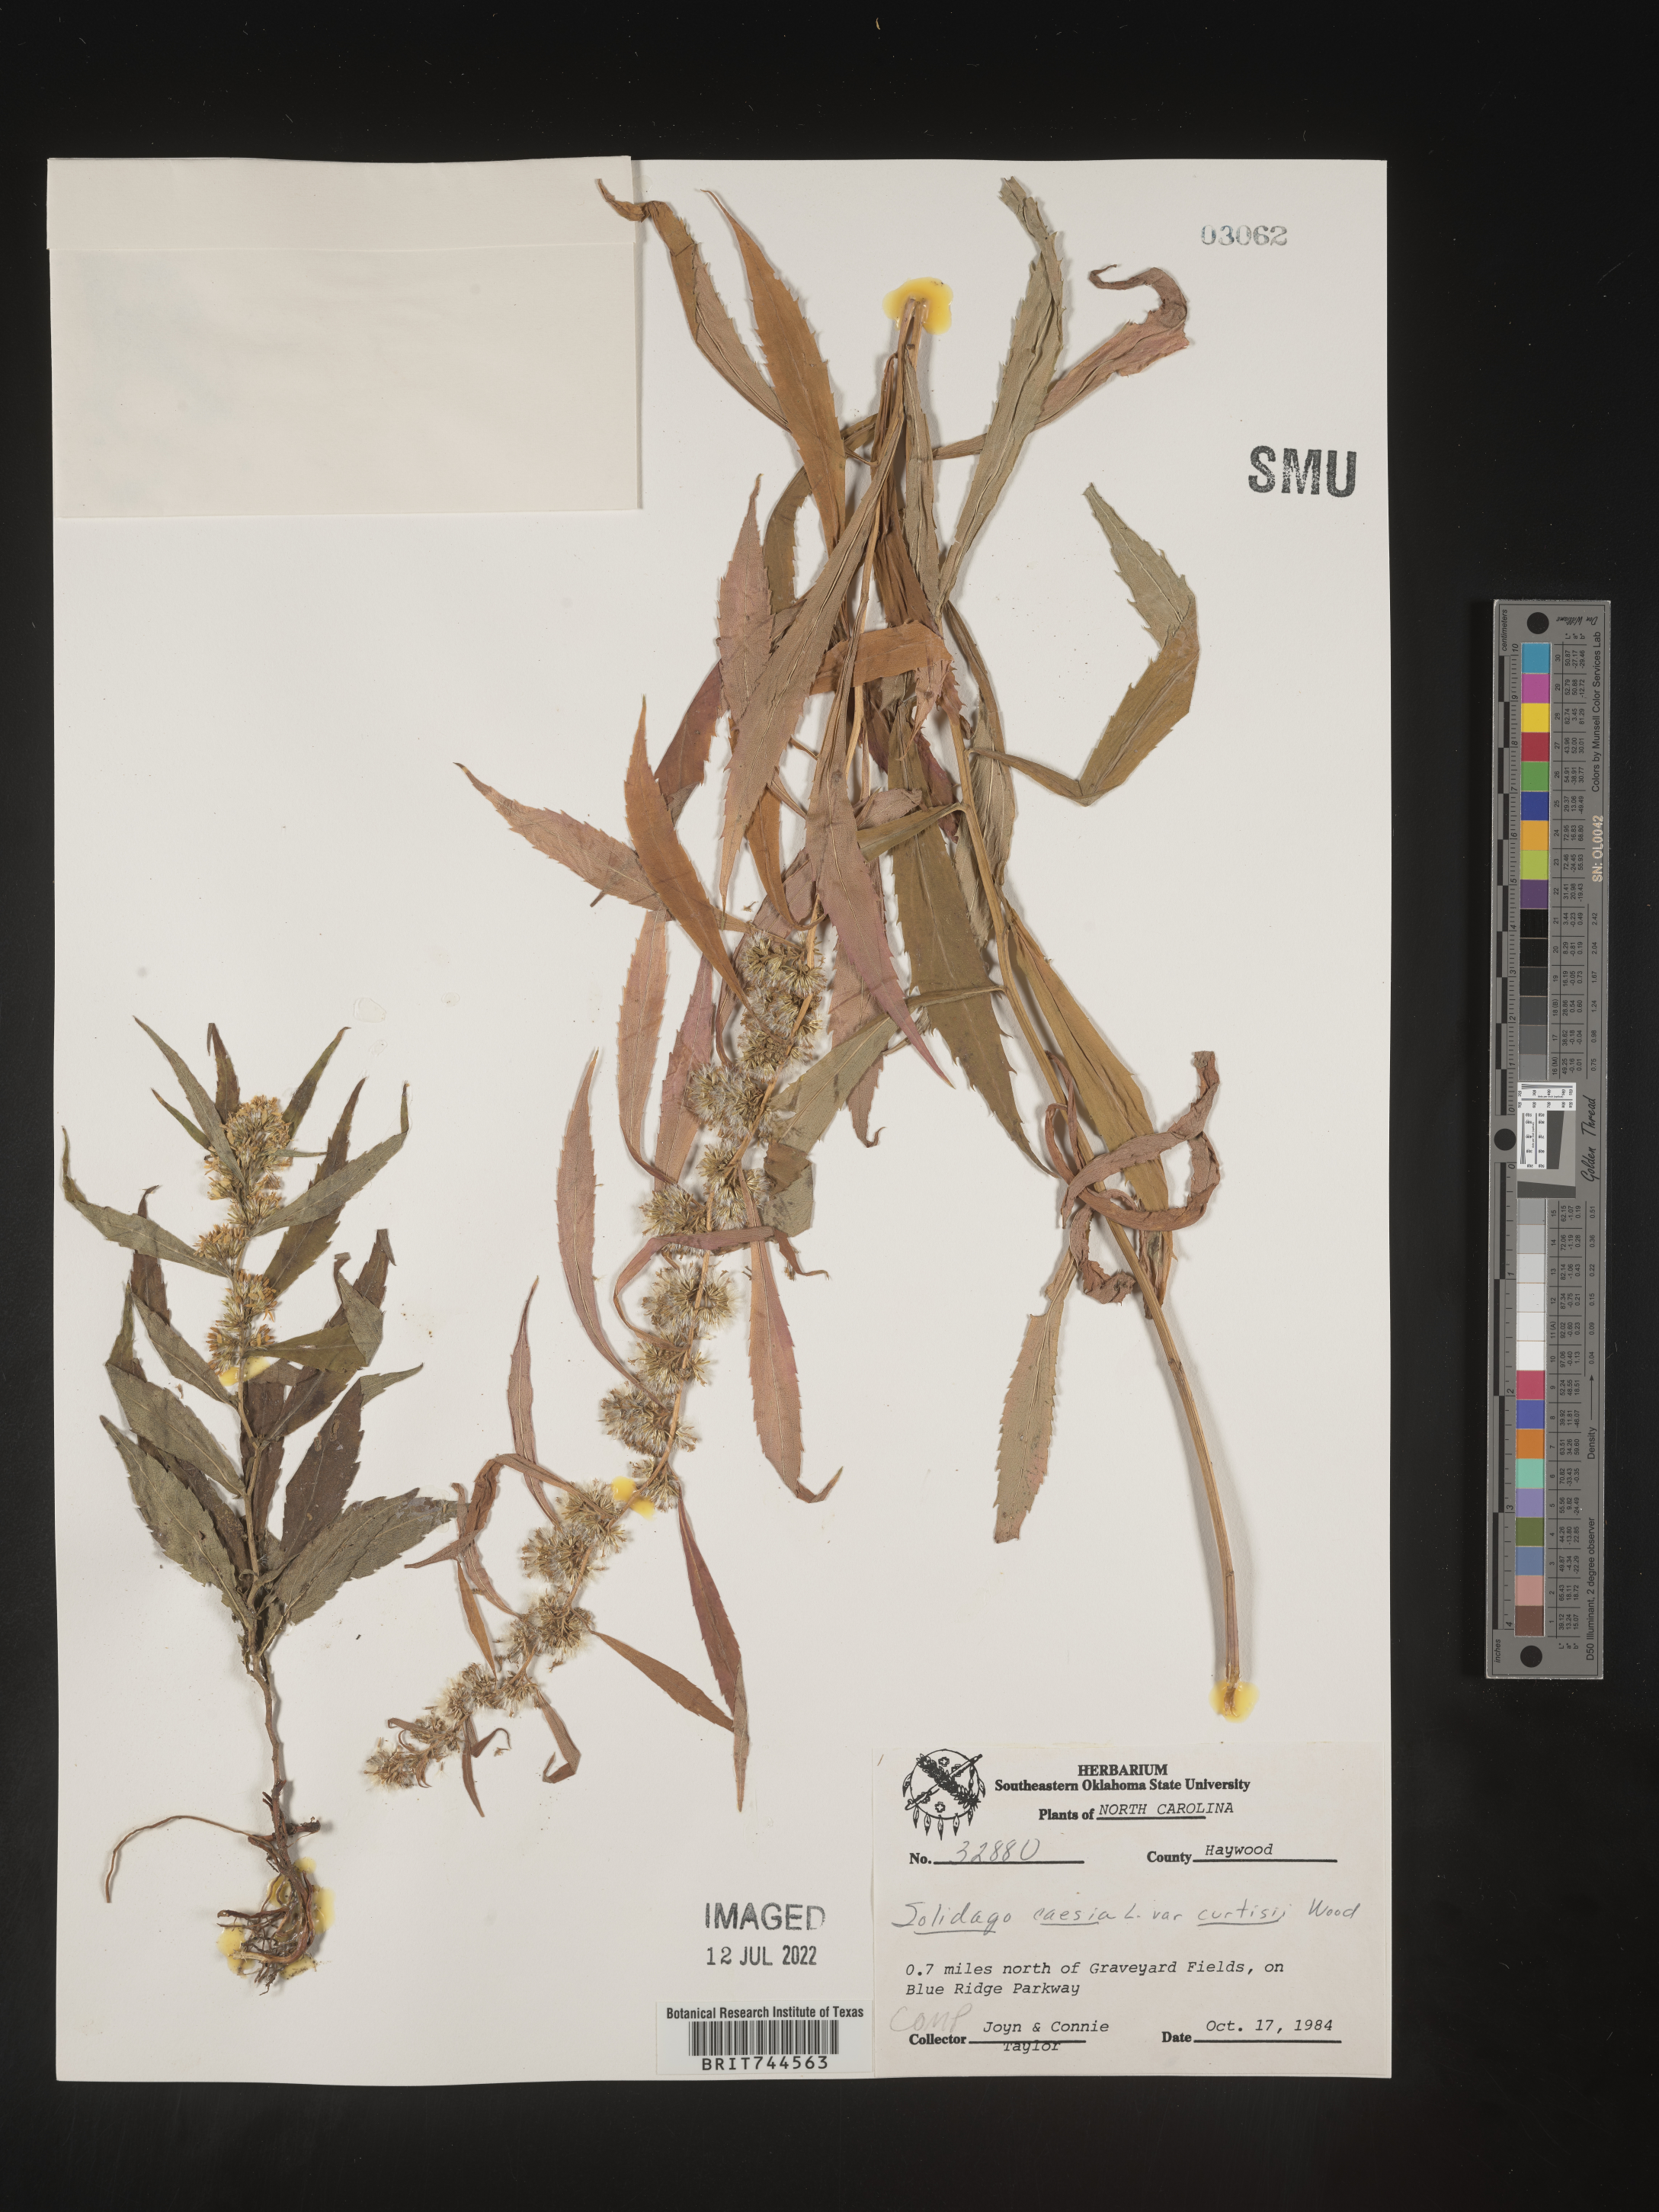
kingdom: Plantae
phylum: Tracheophyta
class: Magnoliopsida
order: Asterales
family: Asteraceae
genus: Solidago
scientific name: Solidago caesia
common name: Woodland goldenrod
